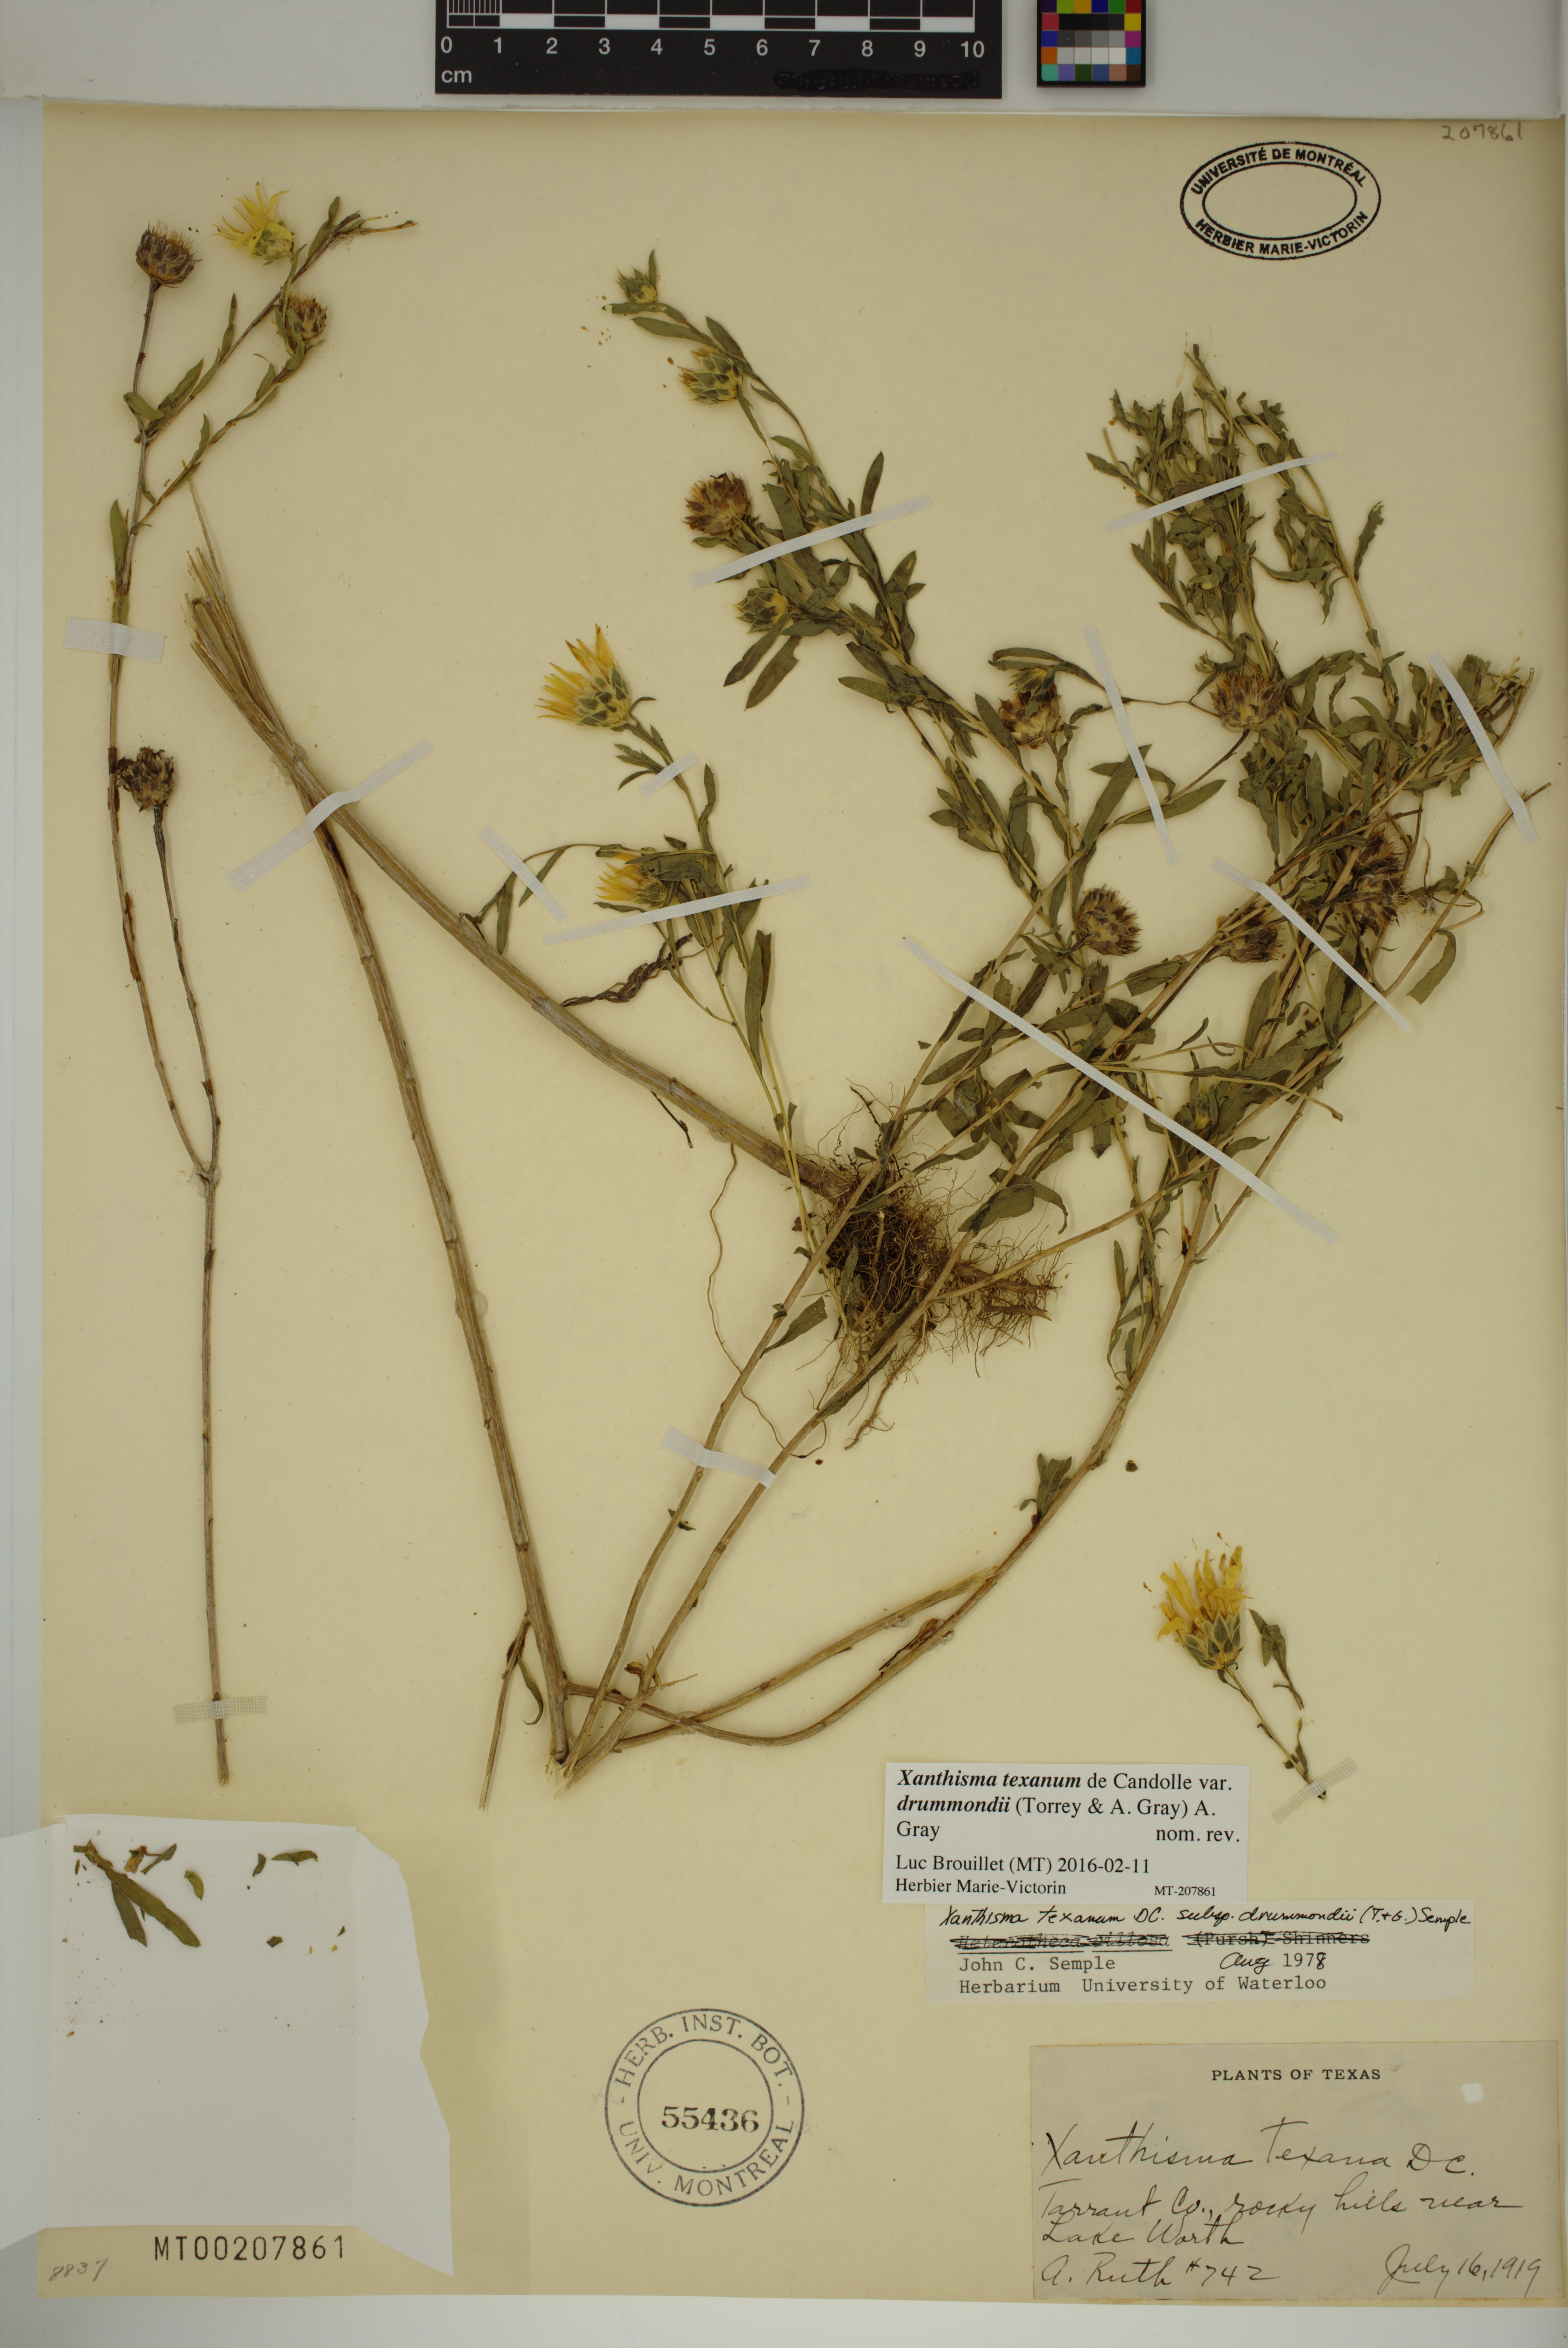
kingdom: Plantae
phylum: Tracheophyta
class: Magnoliopsida
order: Asterales
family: Asteraceae
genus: Xanthisma
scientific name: Xanthisma texanum
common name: Texas sleepy daisy
